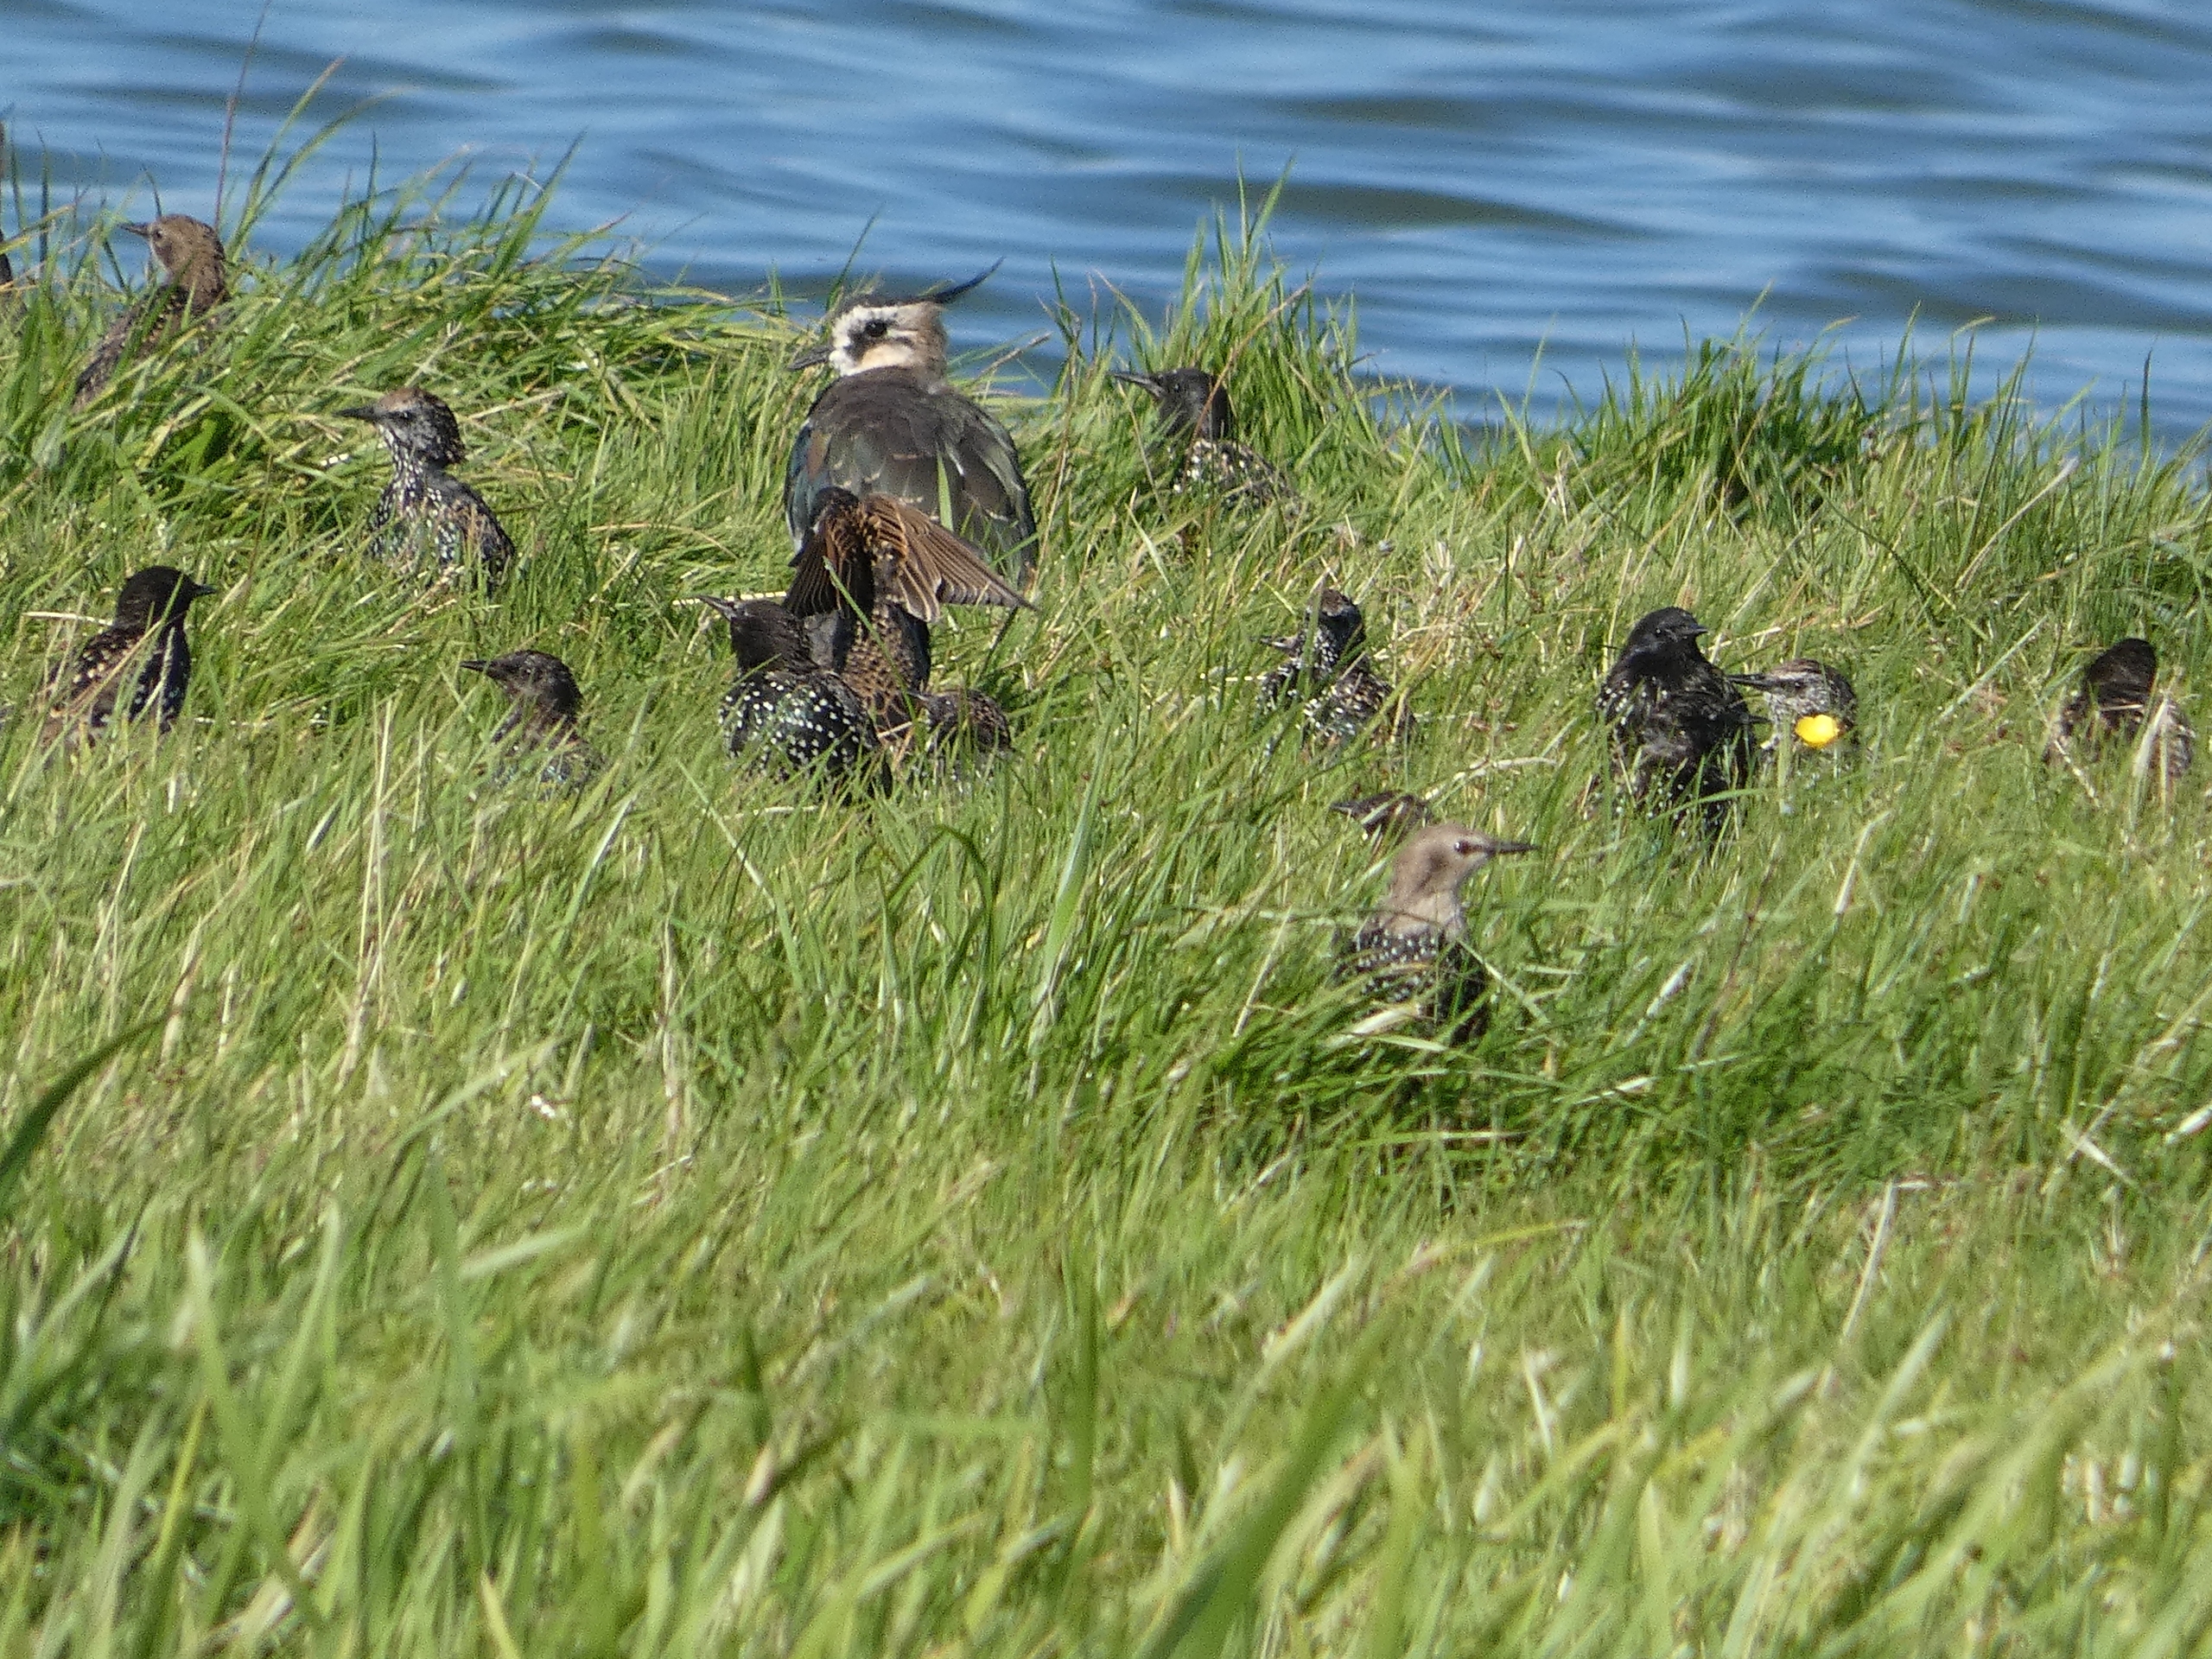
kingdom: Animalia
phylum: Chordata
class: Aves
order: Charadriiformes
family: Charadriidae
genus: Vanellus
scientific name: Vanellus vanellus
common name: Vibe
